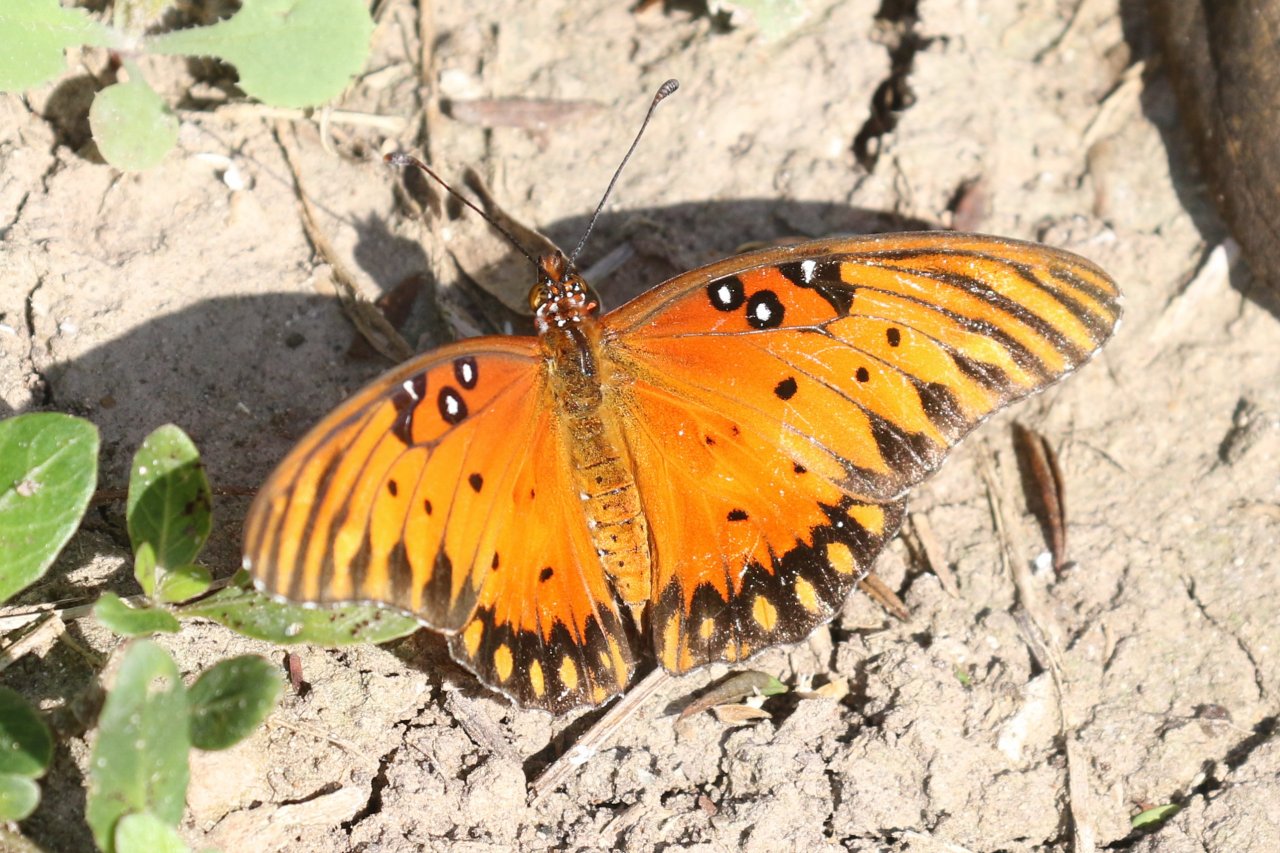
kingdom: Animalia
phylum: Arthropoda
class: Insecta
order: Lepidoptera
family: Nymphalidae
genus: Dione
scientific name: Dione vanillae
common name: Gulf Fritillary
